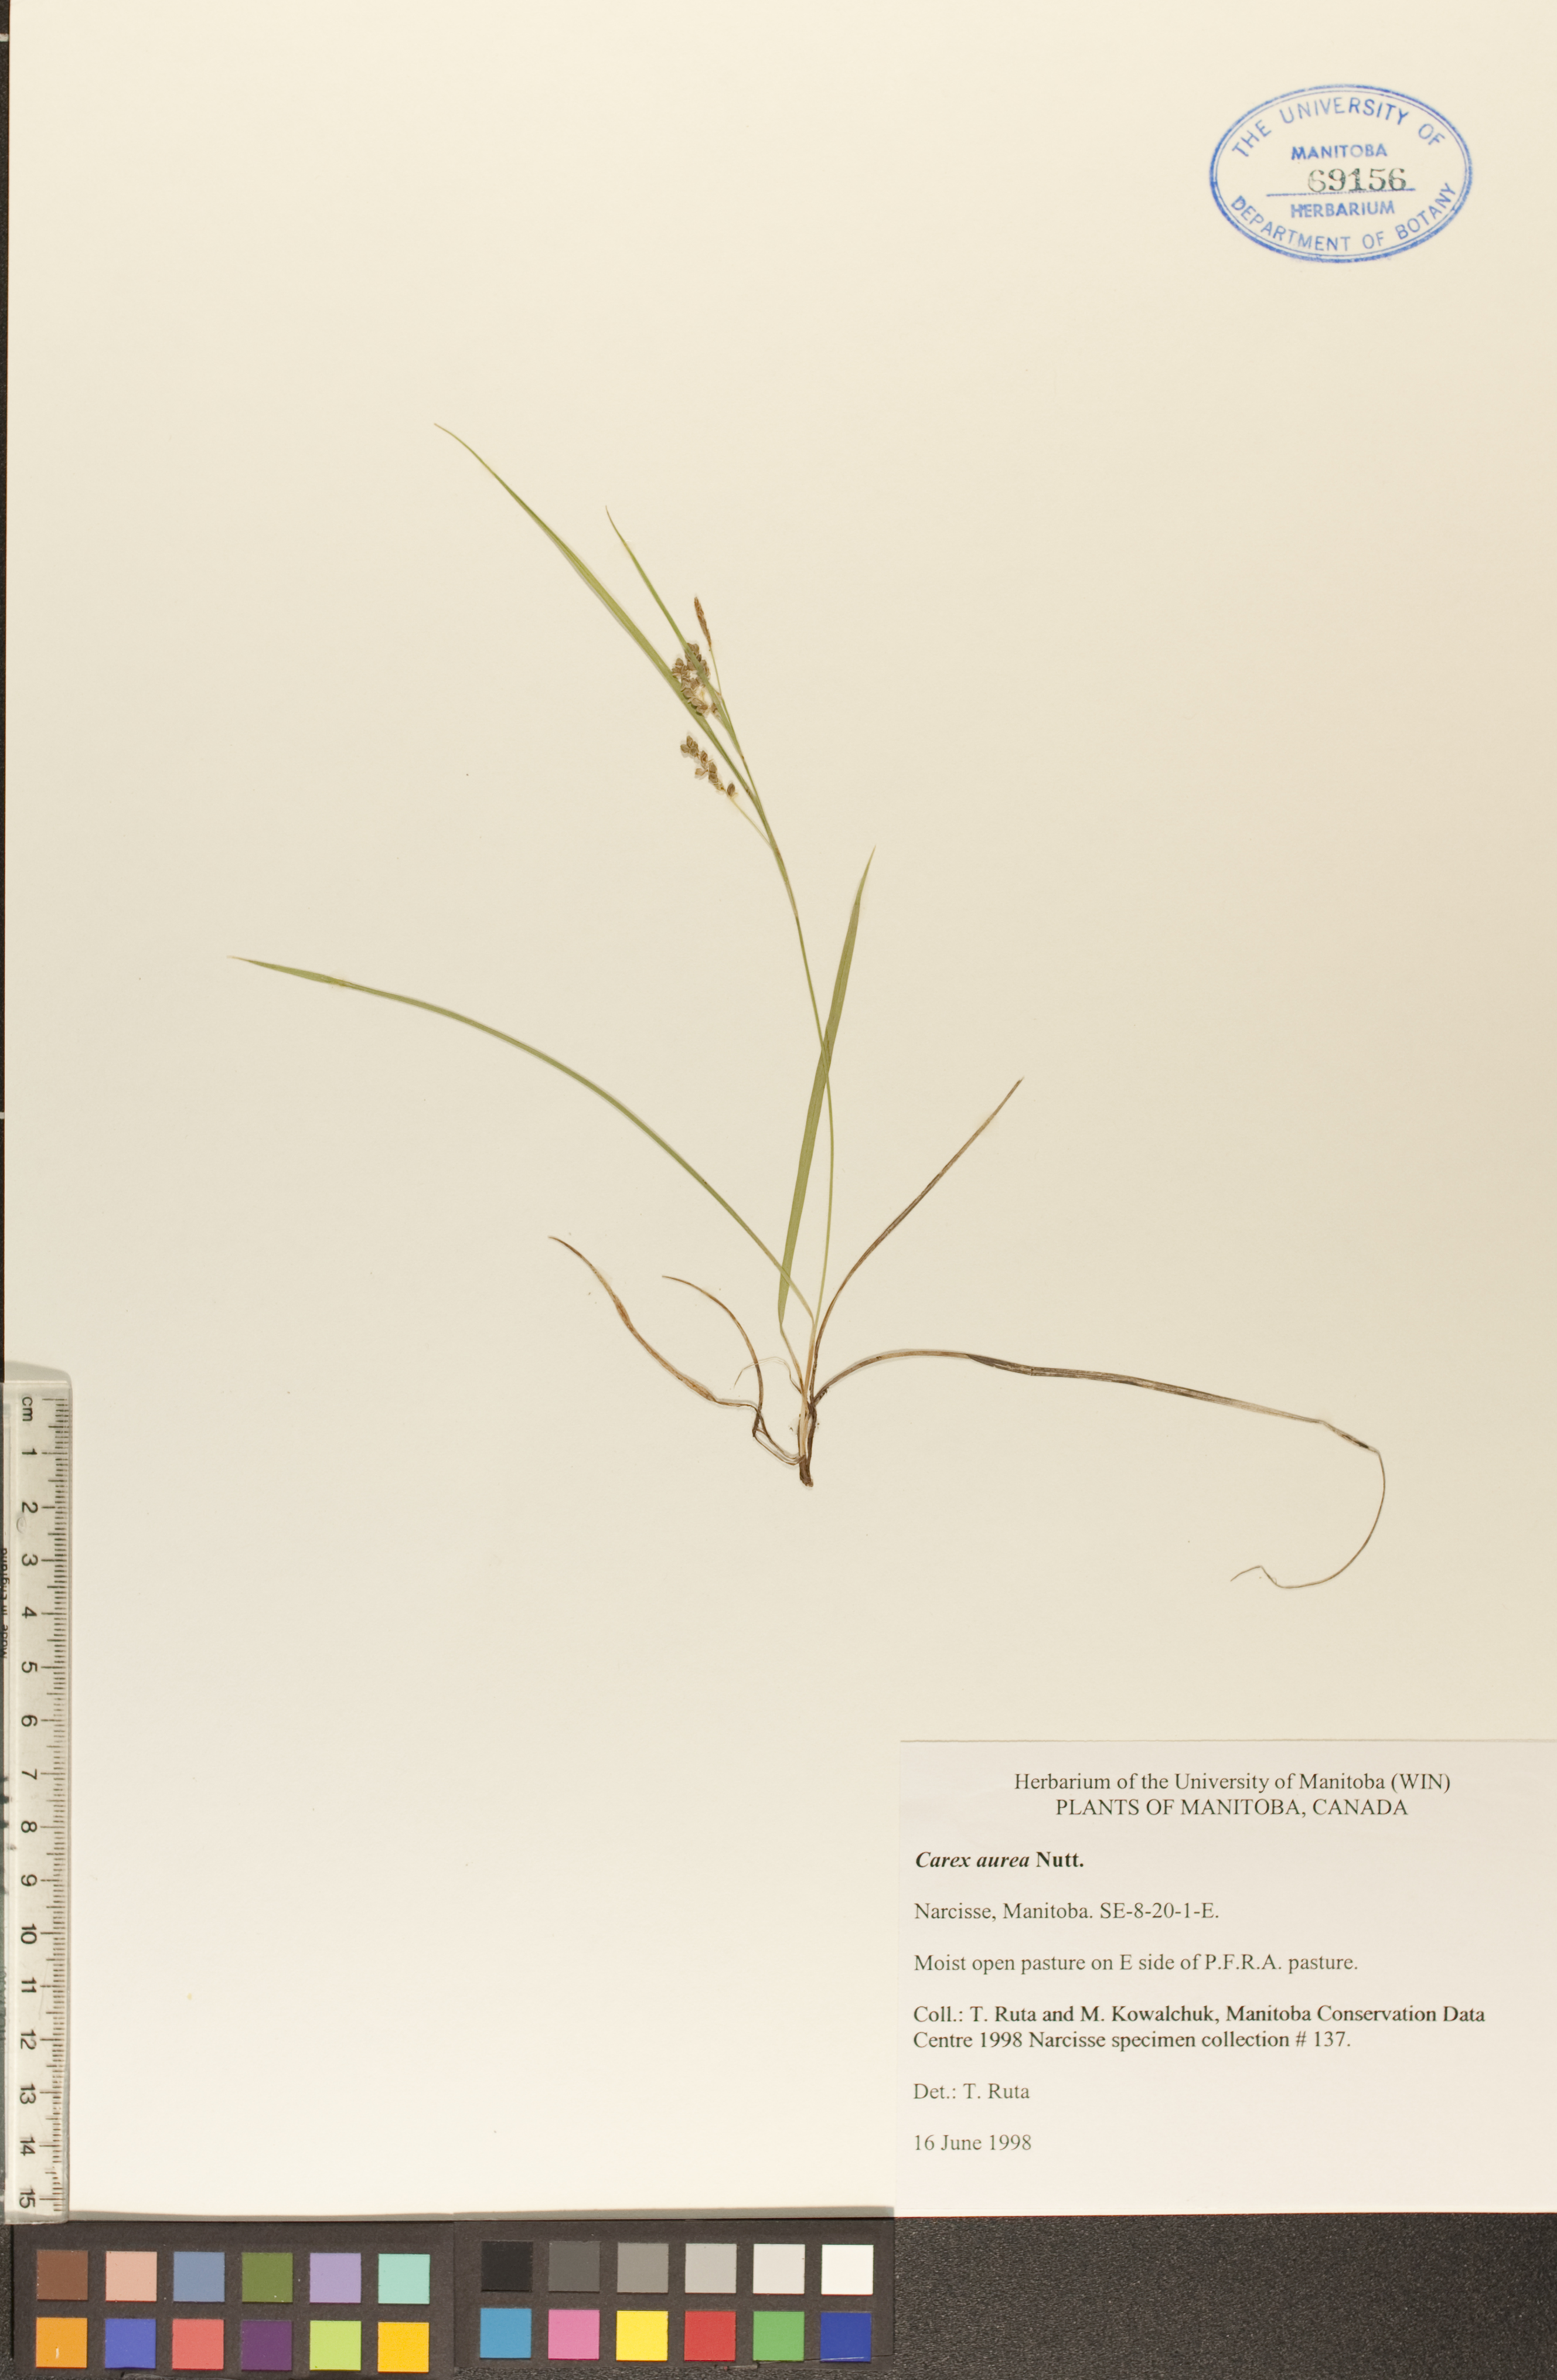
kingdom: Plantae
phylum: Tracheophyta
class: Liliopsida
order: Poales
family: Cyperaceae
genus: Carex
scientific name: Carex aurea
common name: Golden sedge
